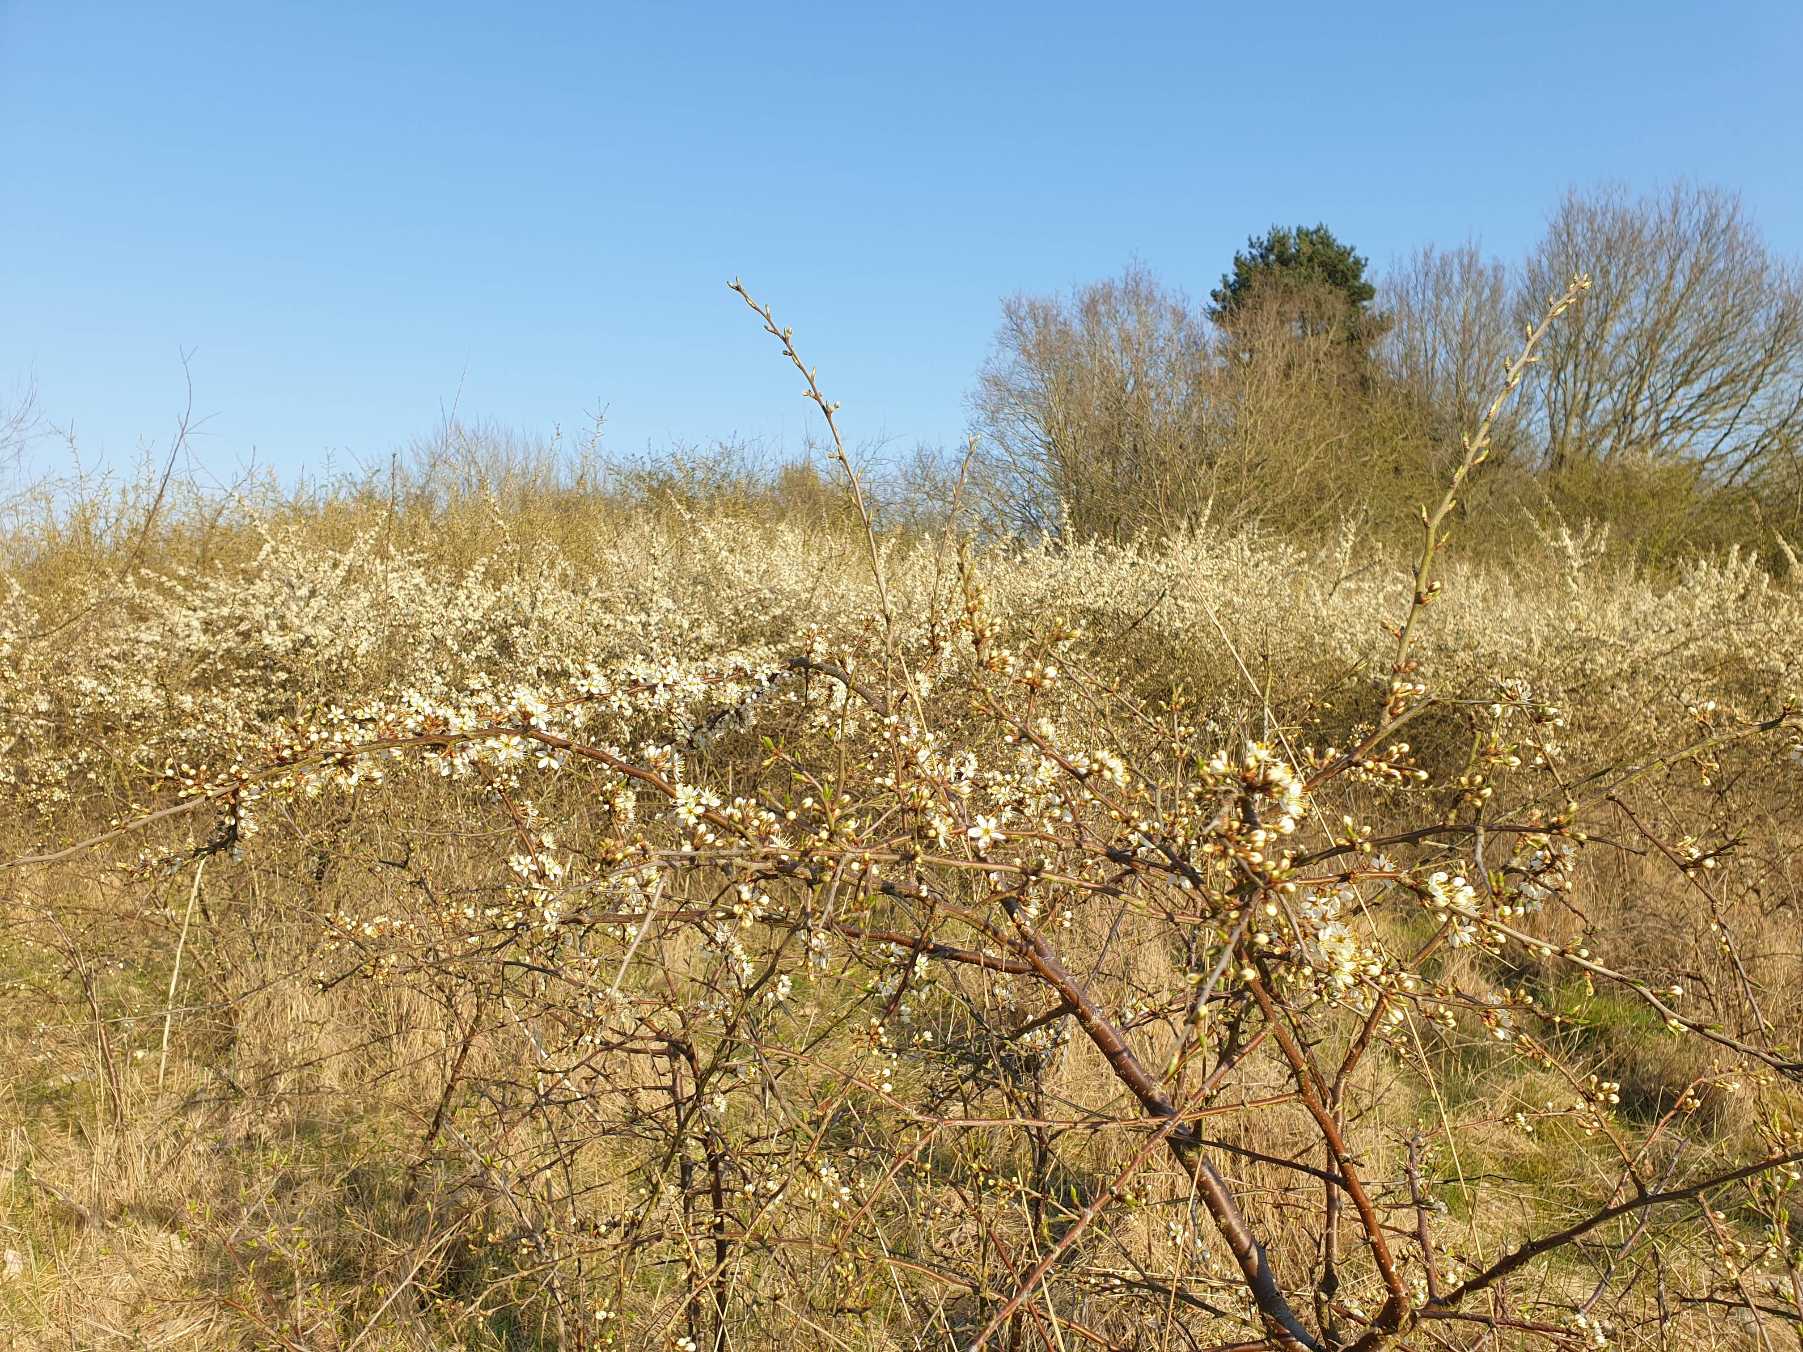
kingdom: Plantae
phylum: Tracheophyta
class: Magnoliopsida
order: Rosales
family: Rosaceae
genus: Prunus
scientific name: Prunus spinosa
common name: Slåen
